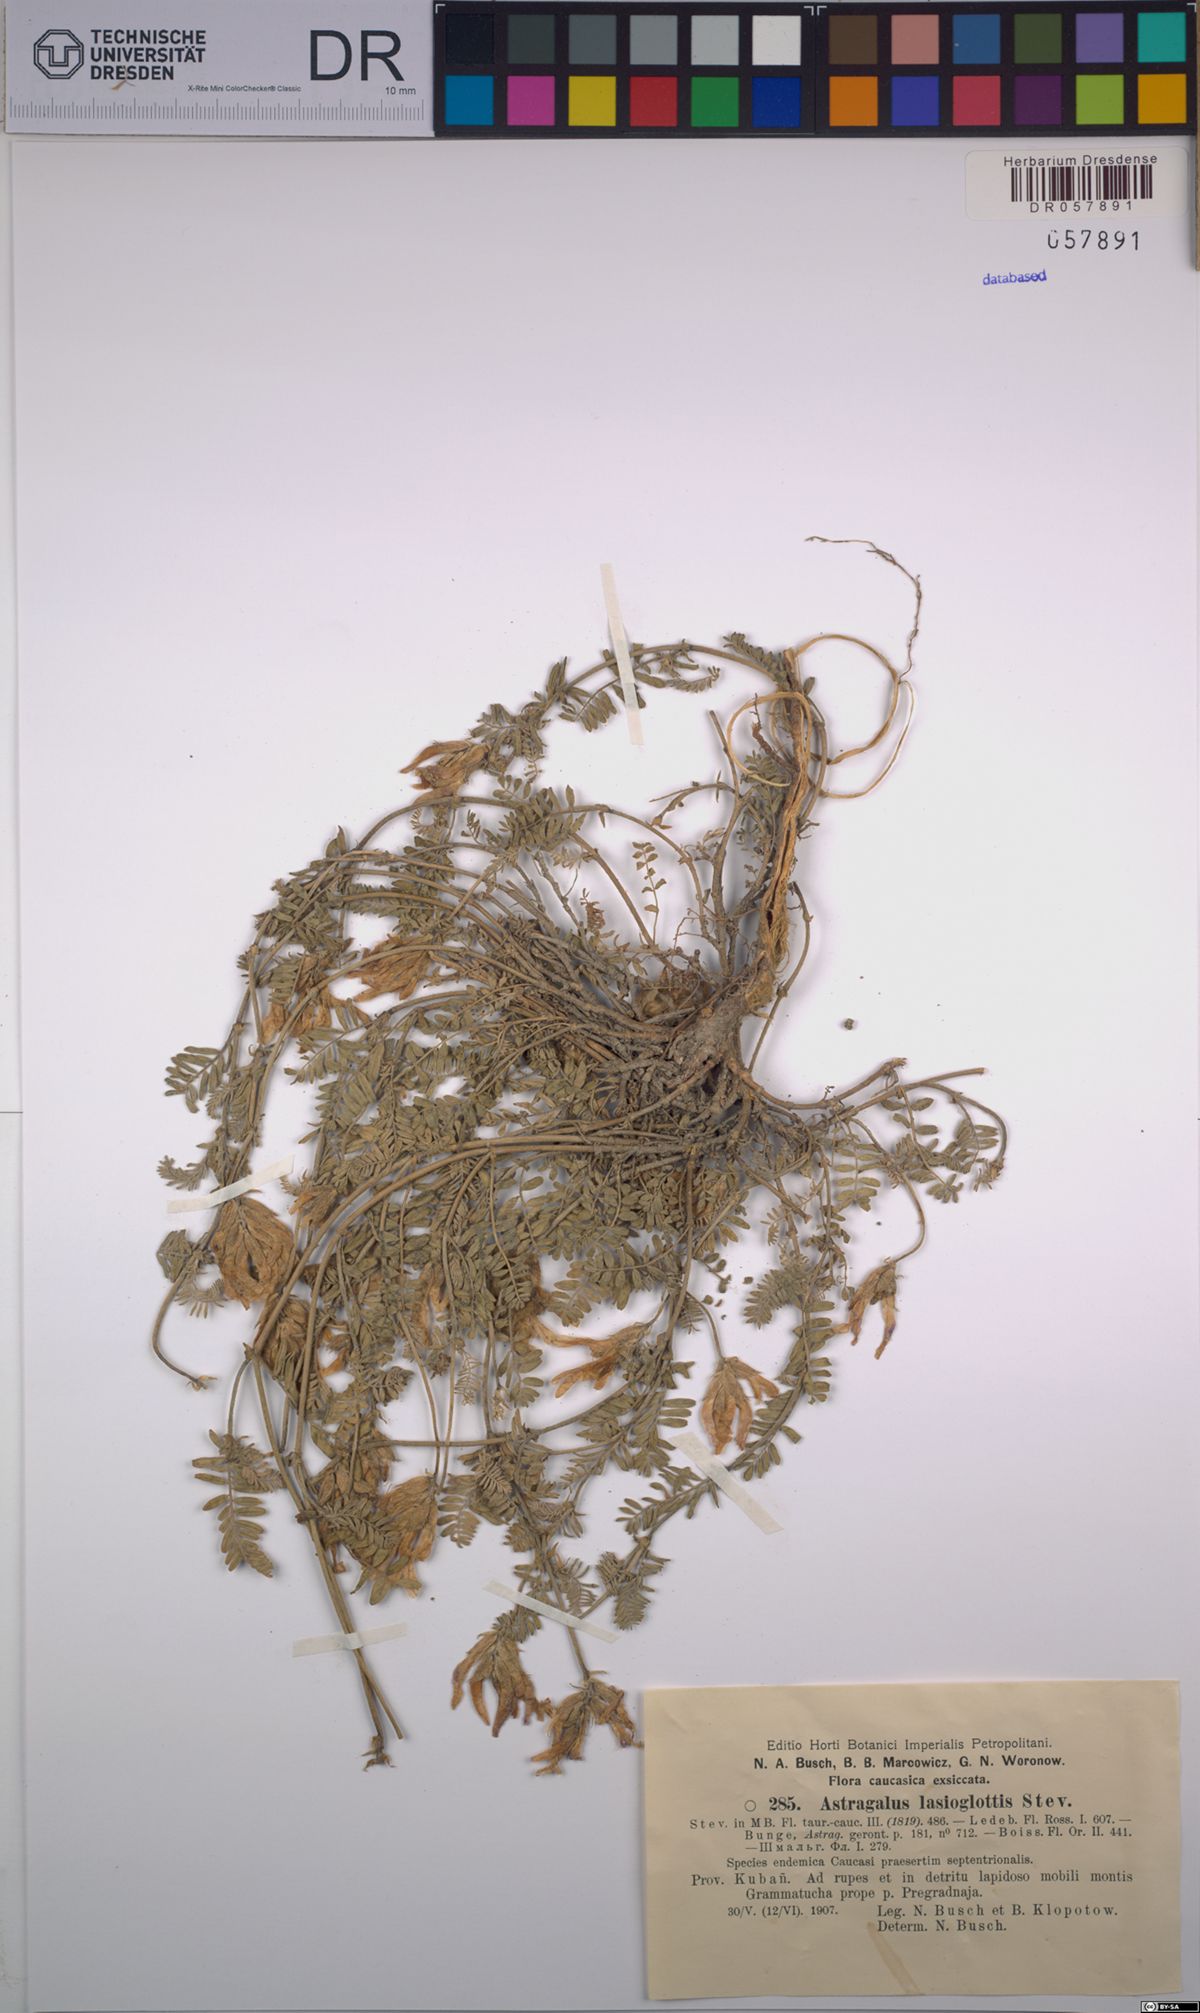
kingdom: Plantae
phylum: Tracheophyta
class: Magnoliopsida
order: Fabales
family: Fabaceae
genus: Astragalus
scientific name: Astragalus lasioglottis
